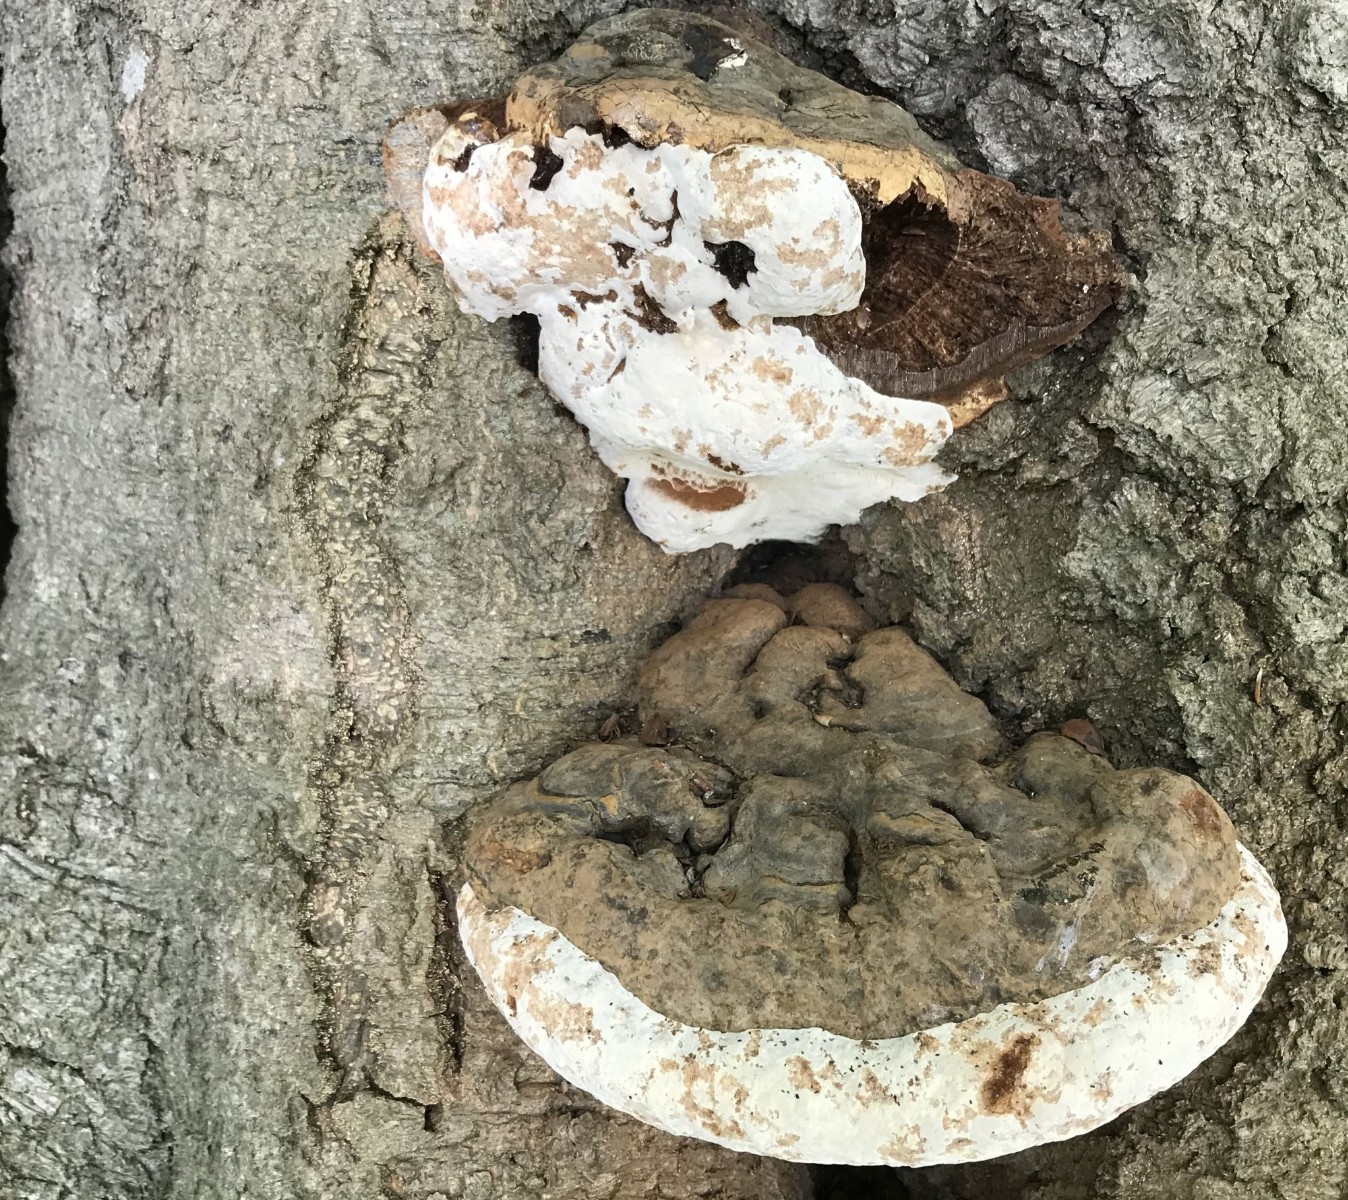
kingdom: Fungi
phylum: Basidiomycota
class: Agaricomycetes
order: Polyporales
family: Polyporaceae
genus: Ganoderma
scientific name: Ganoderma pfeifferi
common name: kobberrød lakporesvamp
